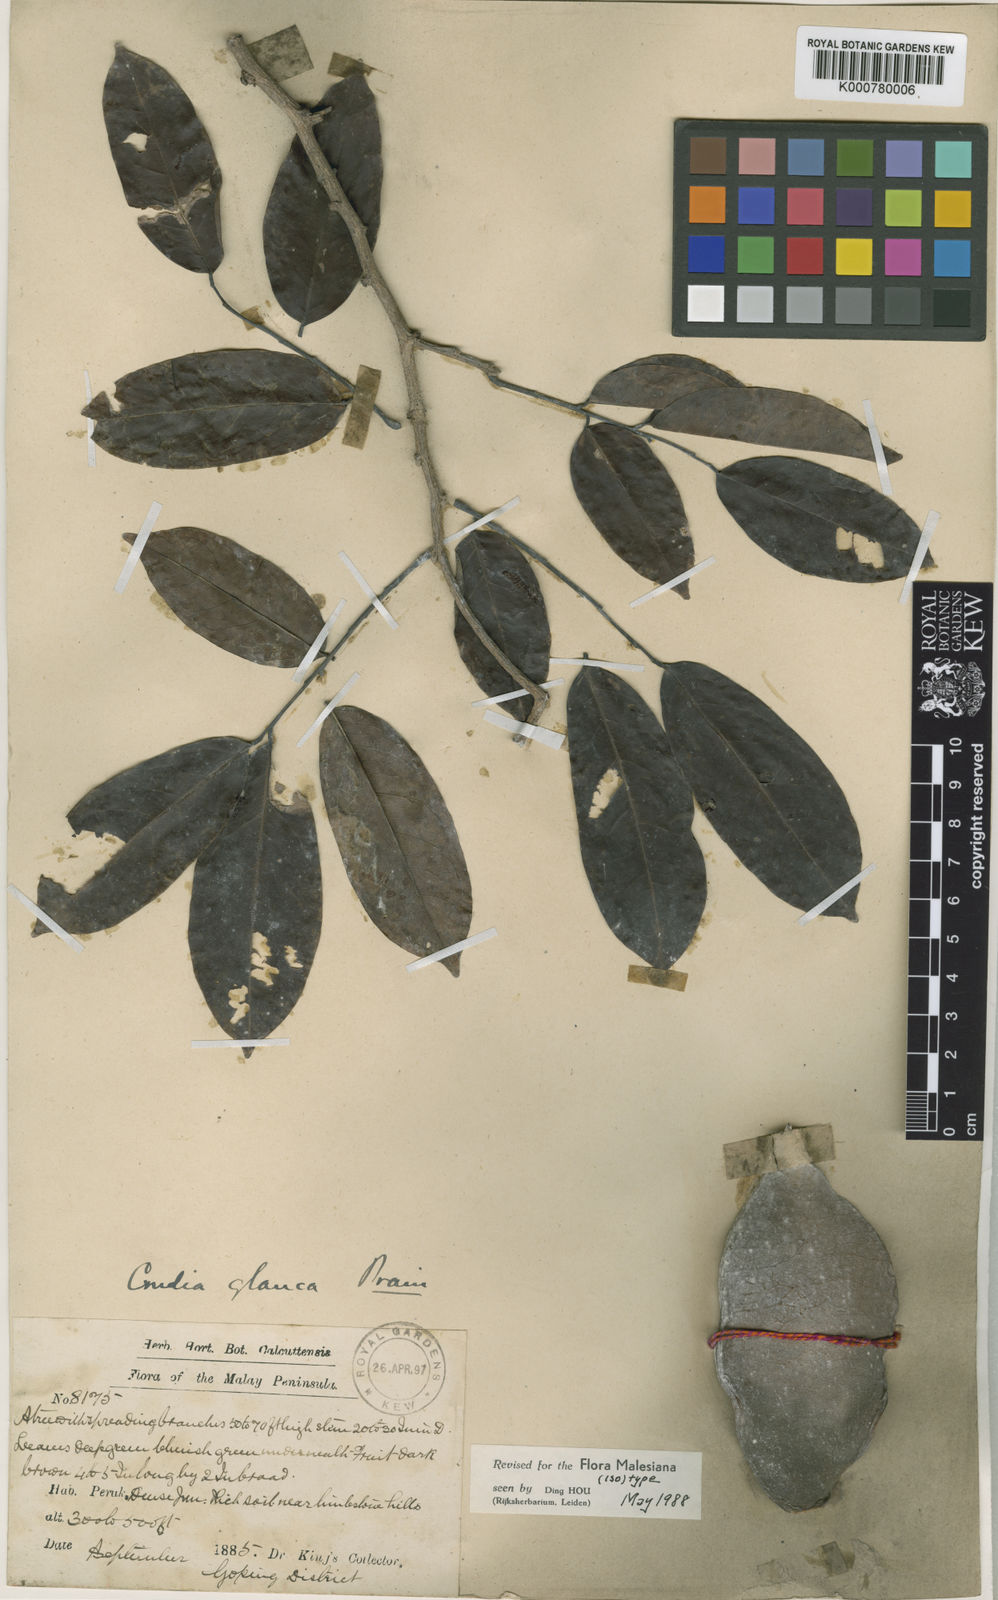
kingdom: Plantae
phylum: Tracheophyta
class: Magnoliopsida
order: Fabales
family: Fabaceae
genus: Crudia
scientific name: Crudia curtisii
